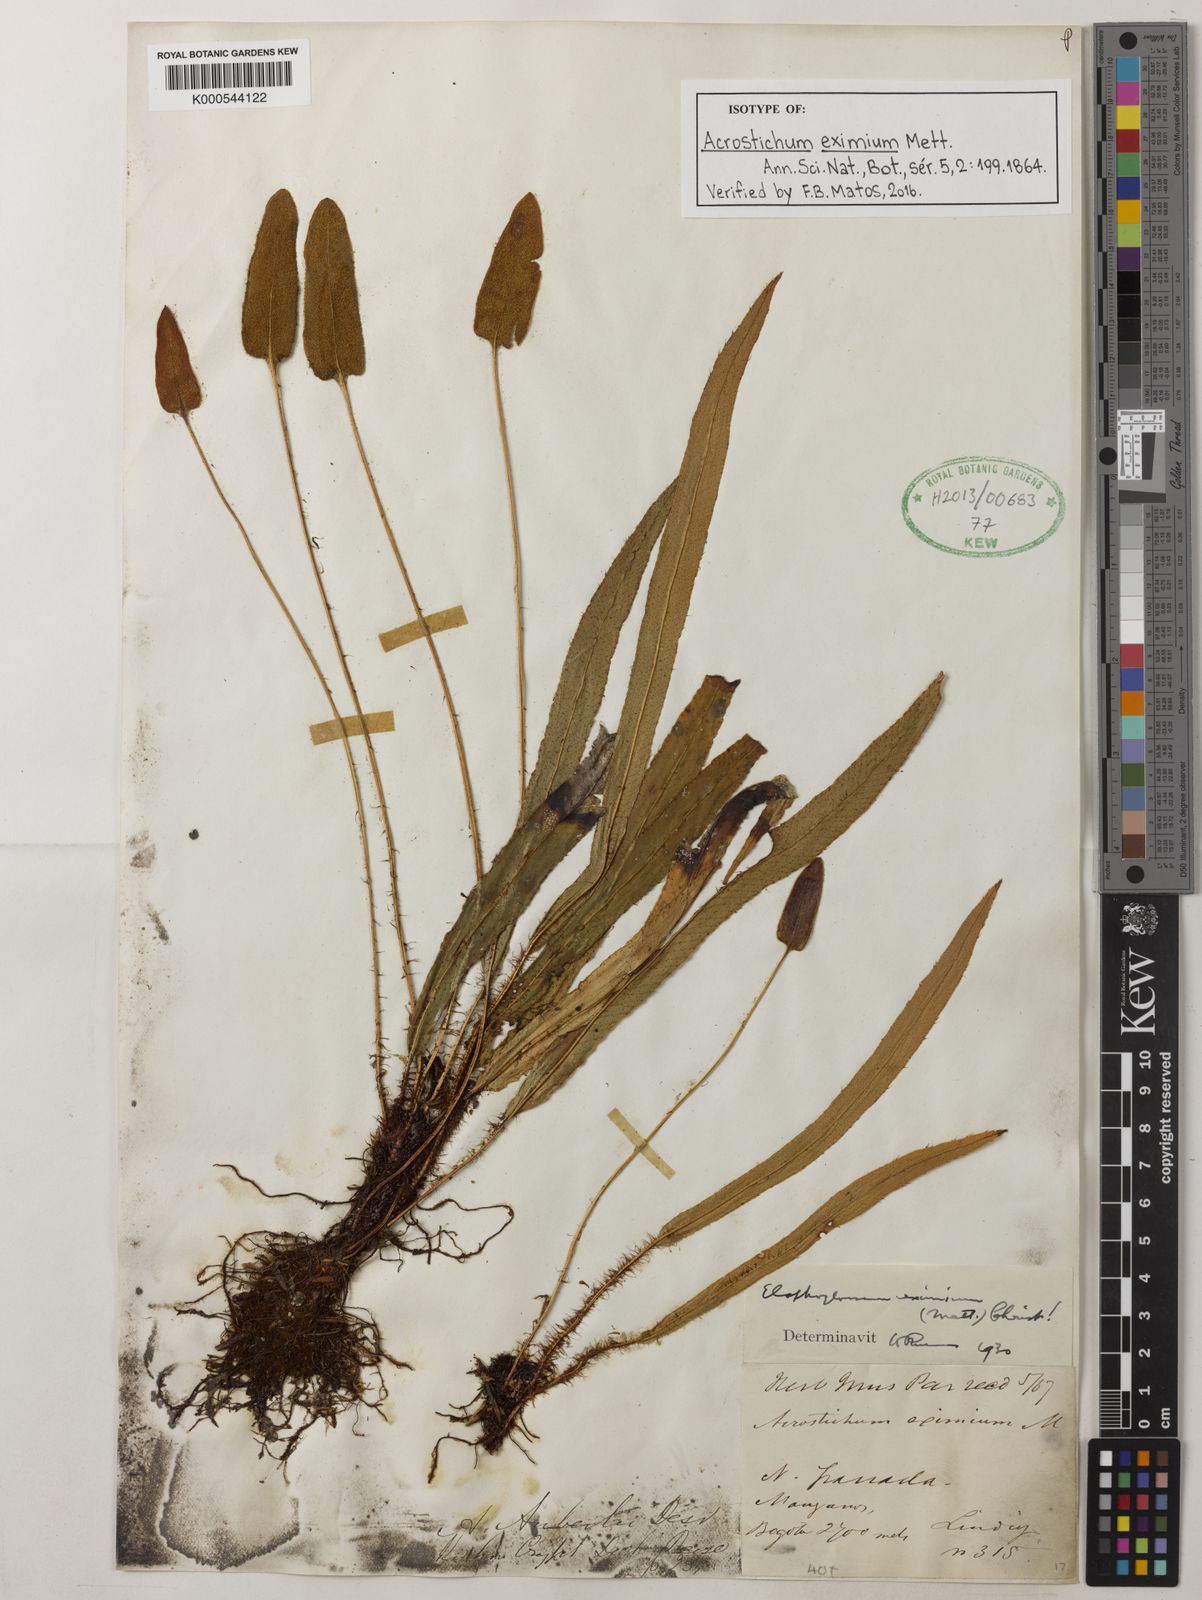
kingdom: Plantae
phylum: Tracheophyta
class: Polypodiopsida
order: Polypodiales
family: Dryopteridaceae
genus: Elaphoglossum
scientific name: Elaphoglossum eximium
